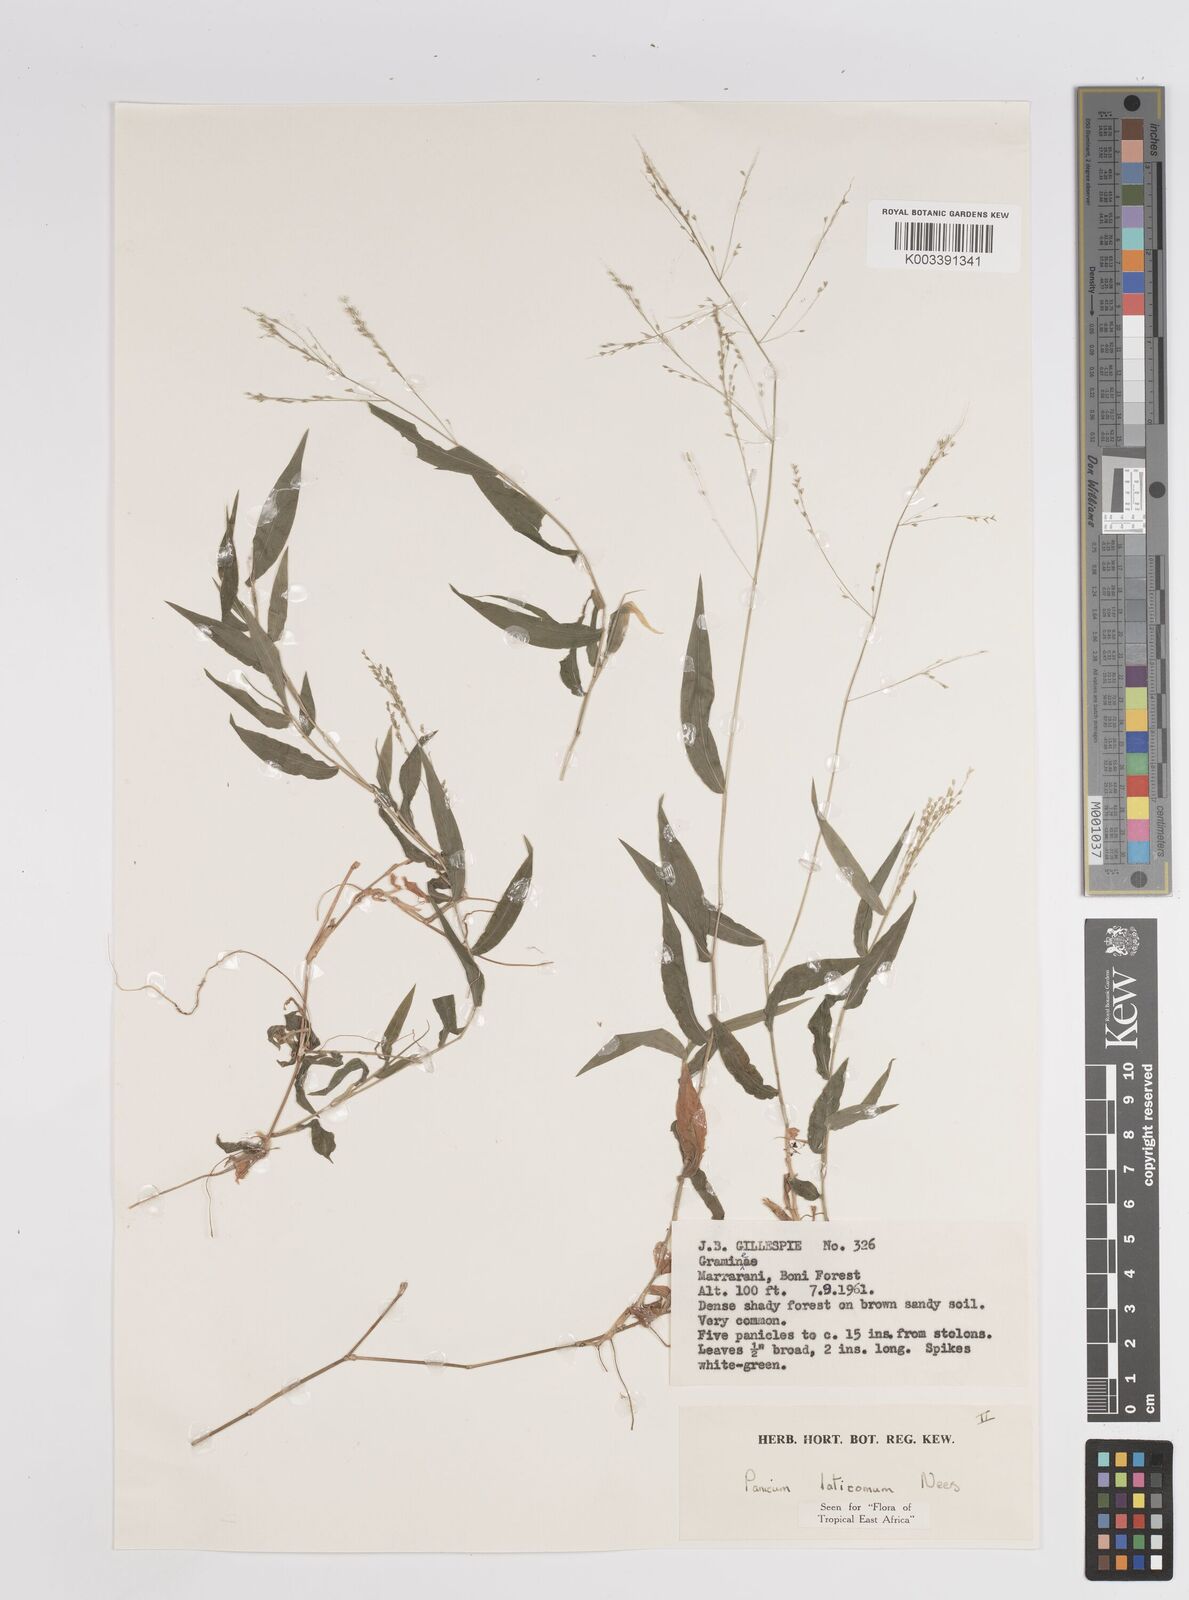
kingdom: Plantae
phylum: Tracheophyta
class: Liliopsida
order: Poales
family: Poaceae
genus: Panicum
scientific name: Panicum laticomum
